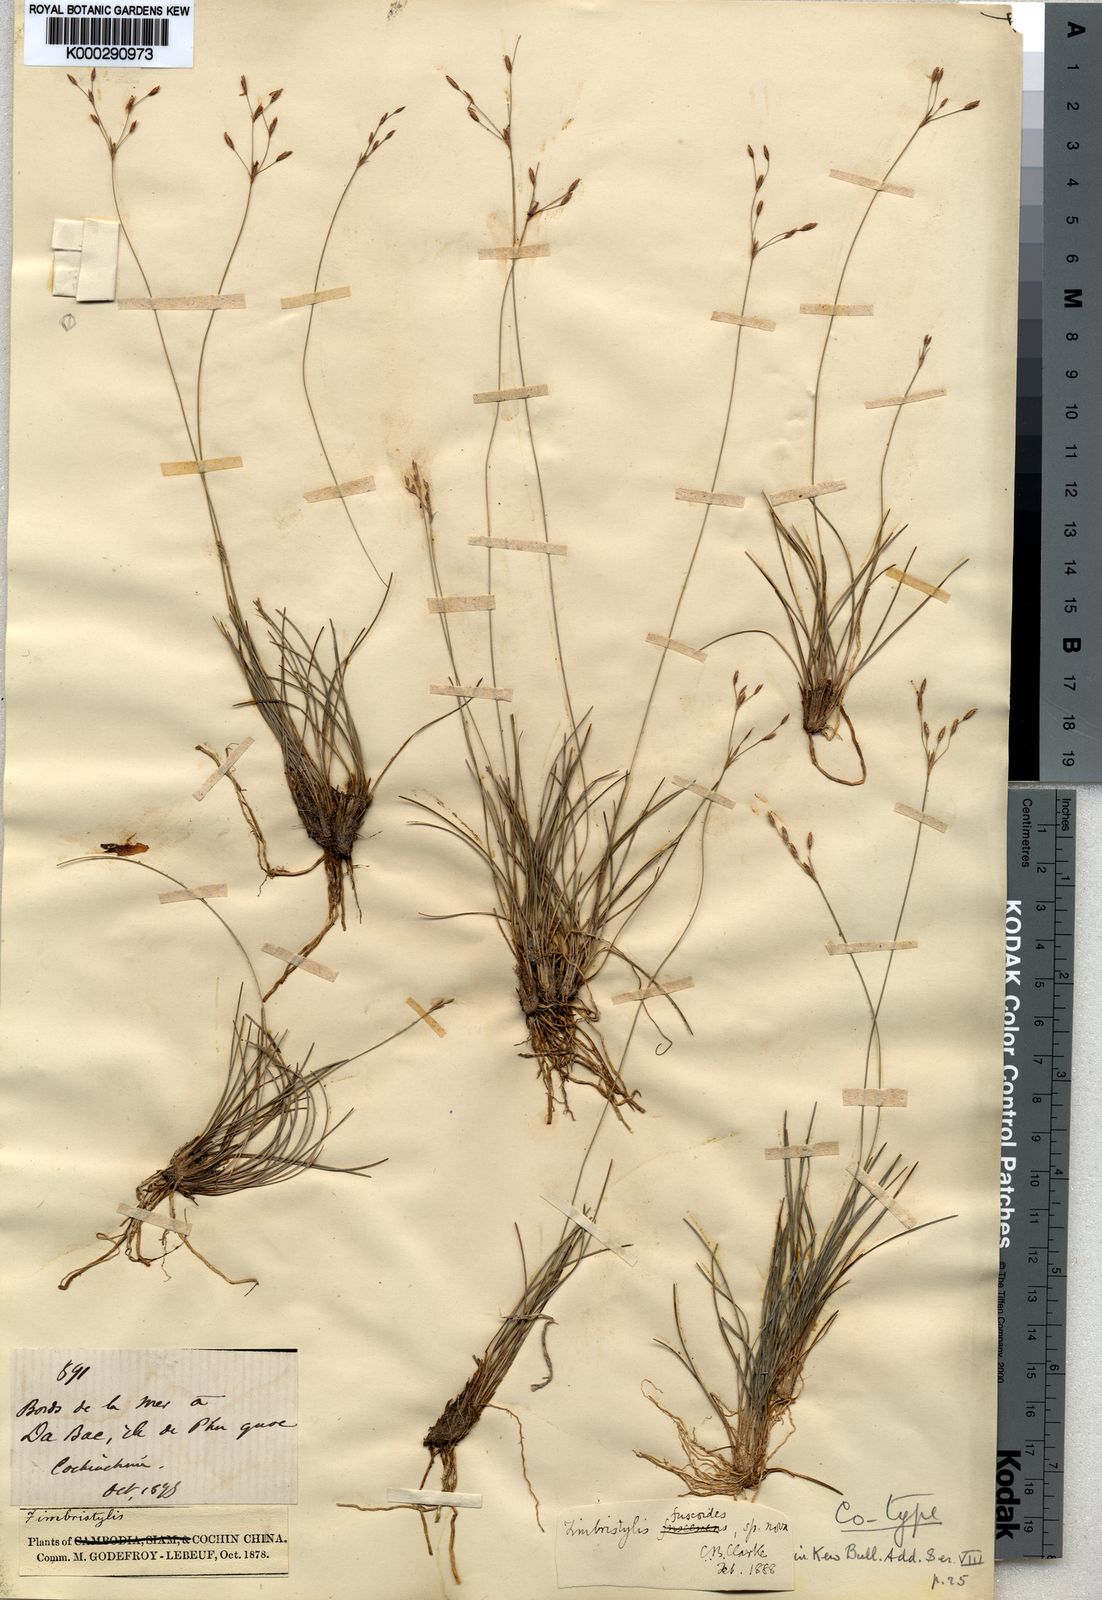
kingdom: Plantae
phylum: Tracheophyta
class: Liliopsida
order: Poales
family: Cyperaceae
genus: Fimbristylis
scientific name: Fimbristylis fuscoides
